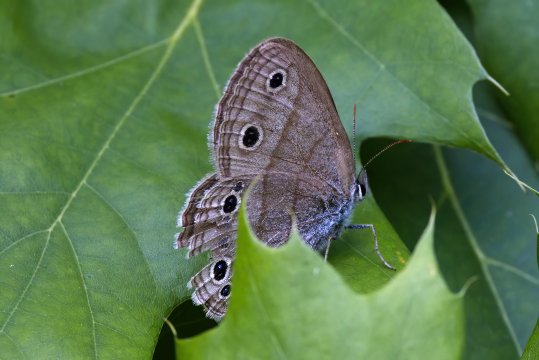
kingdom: Animalia
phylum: Arthropoda
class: Insecta
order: Lepidoptera
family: Nymphalidae
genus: Euptychia
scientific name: Euptychia cymela
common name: Little Wood Satyr
